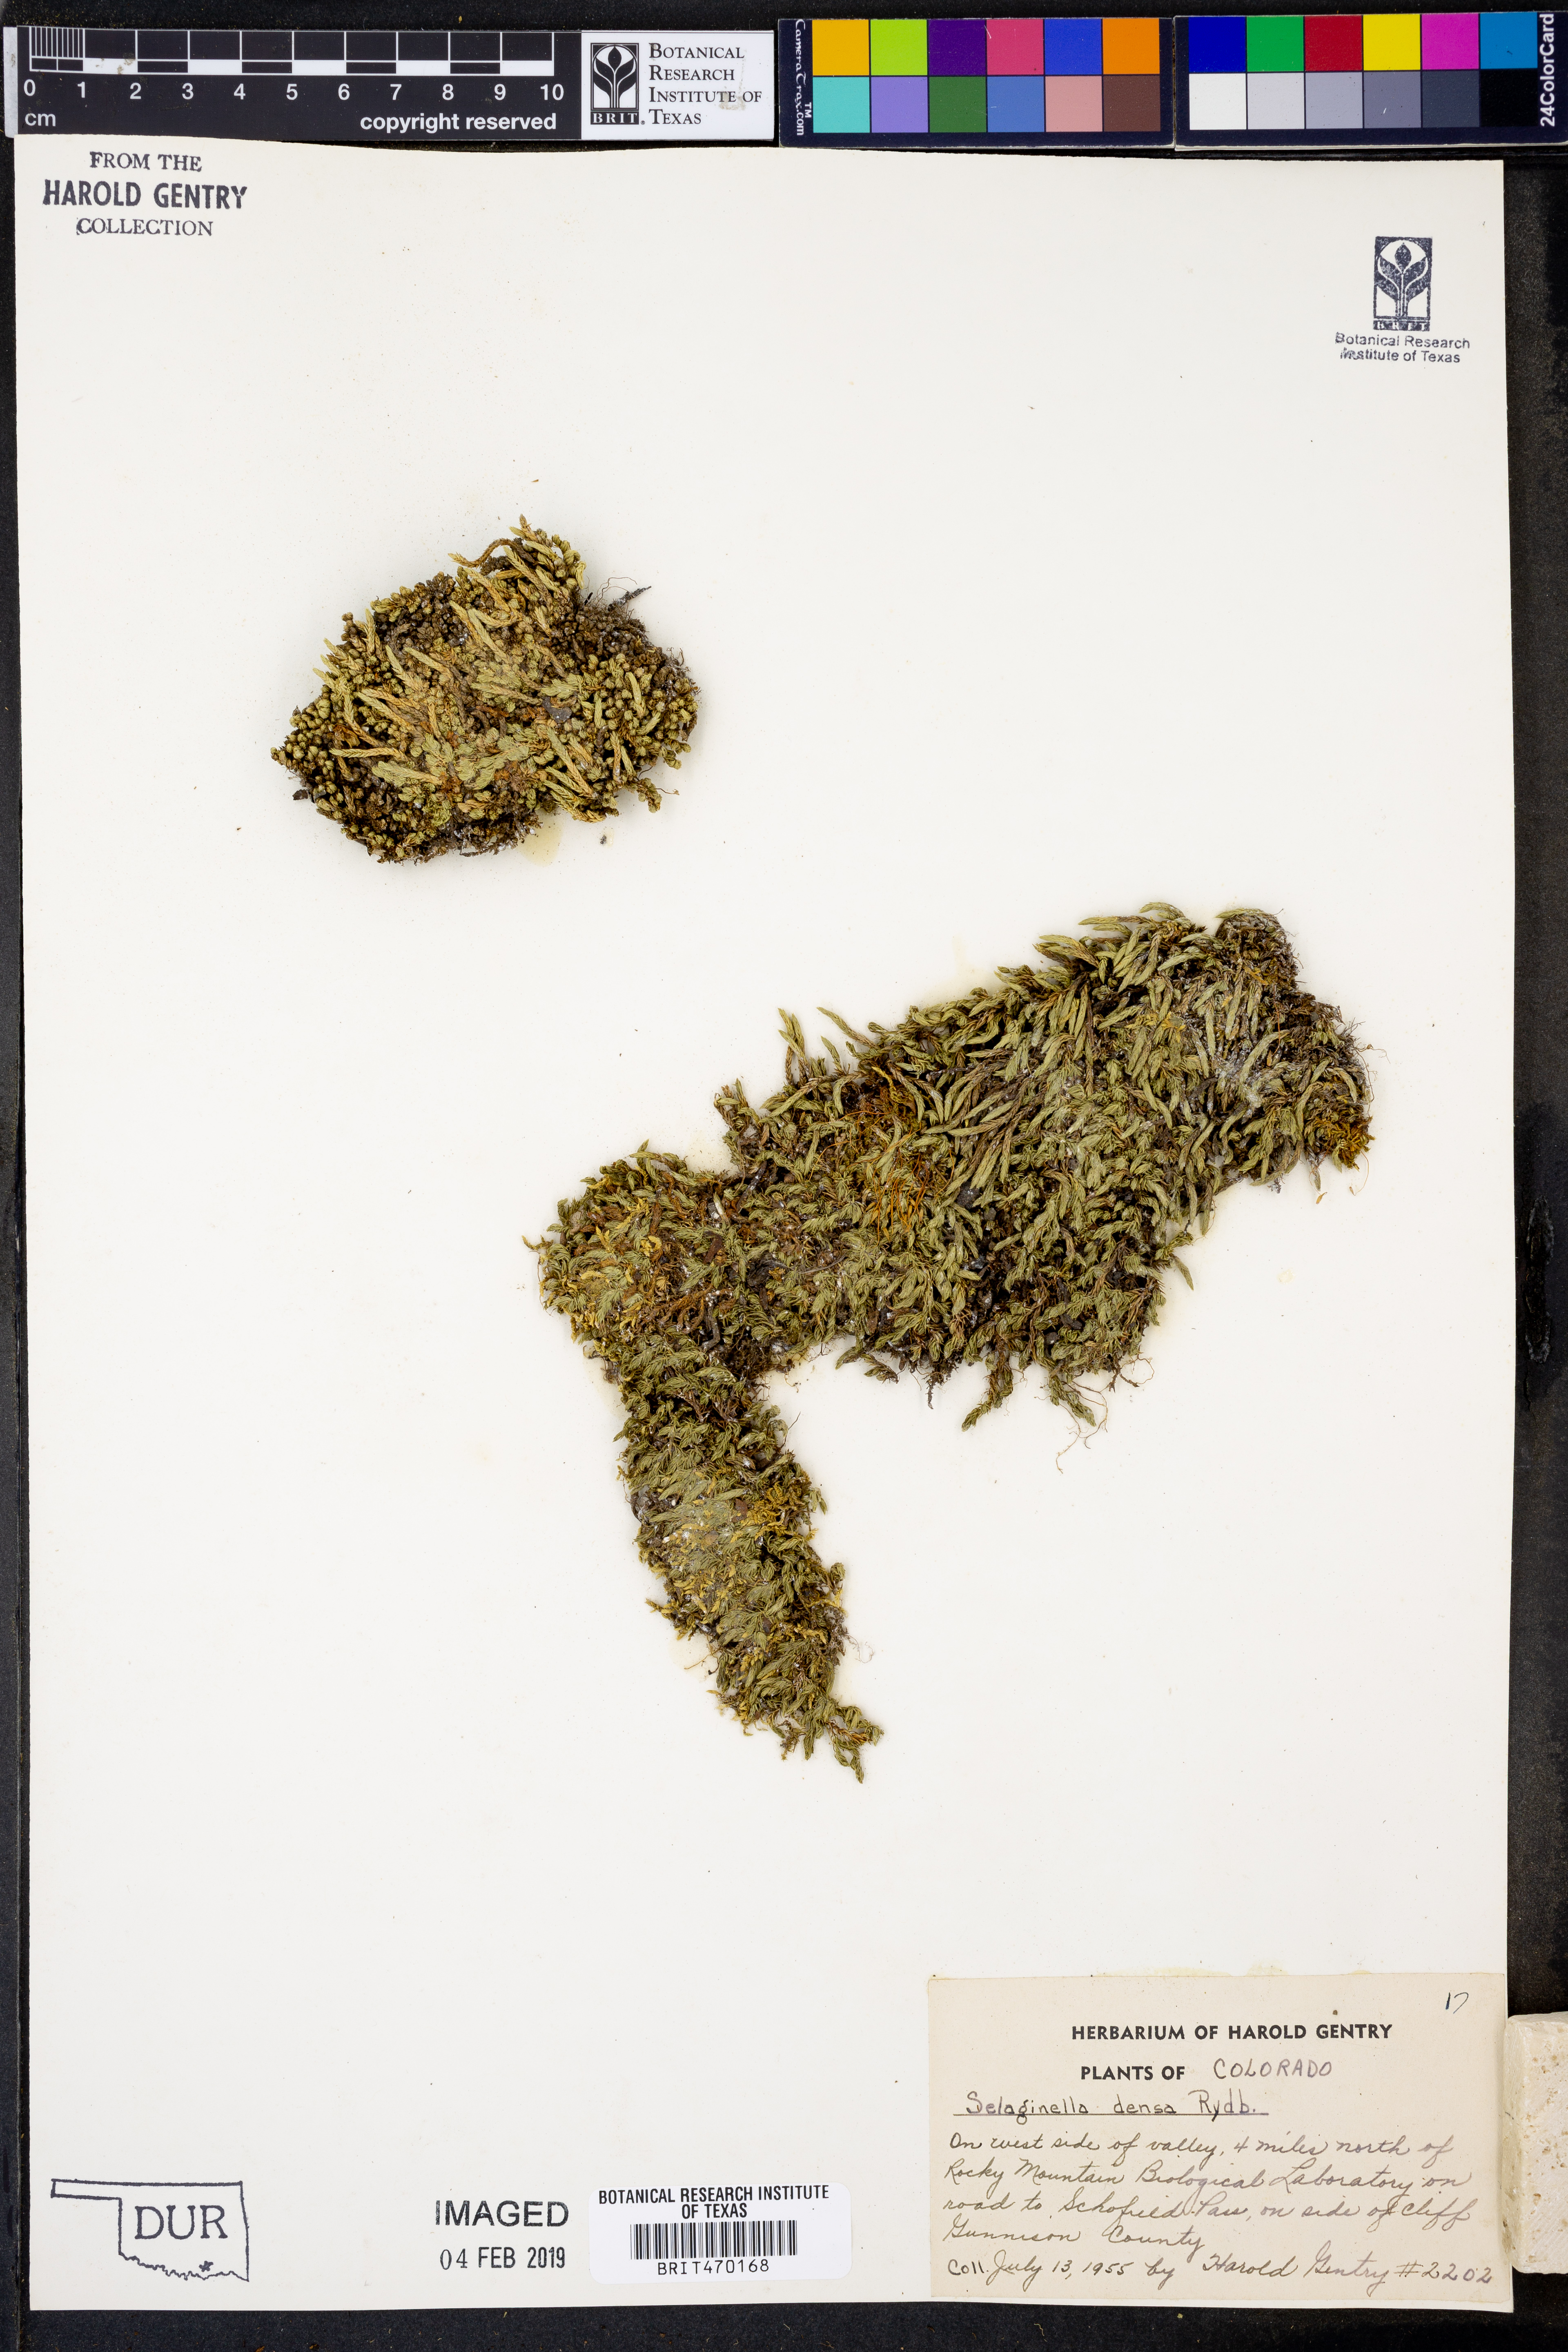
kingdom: Plantae
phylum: Tracheophyta
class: Lycopodiopsida
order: Selaginellales
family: Selaginellaceae
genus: Selaginella
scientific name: Selaginella densa
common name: Mountain spike-moss
